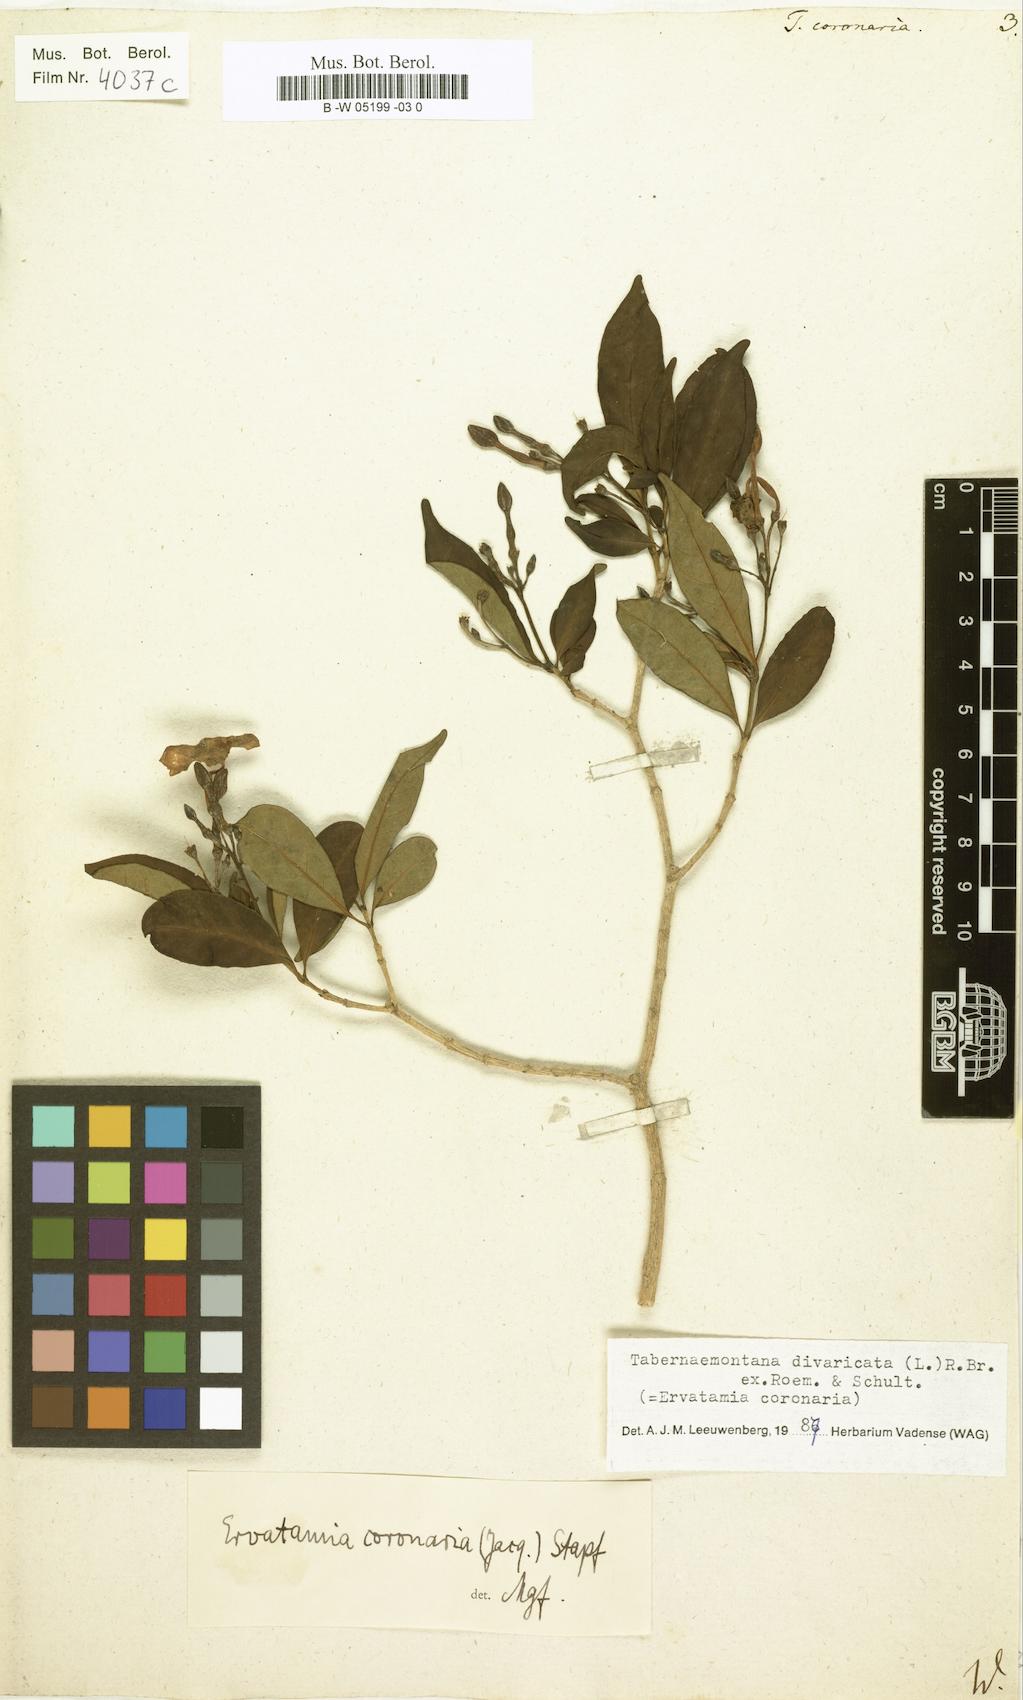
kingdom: Plantae
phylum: Tracheophyta
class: Magnoliopsida
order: Gentianales
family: Apocynaceae
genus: Tabernaemontana
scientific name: Tabernaemontana divaricata
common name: Pinwheelflower
